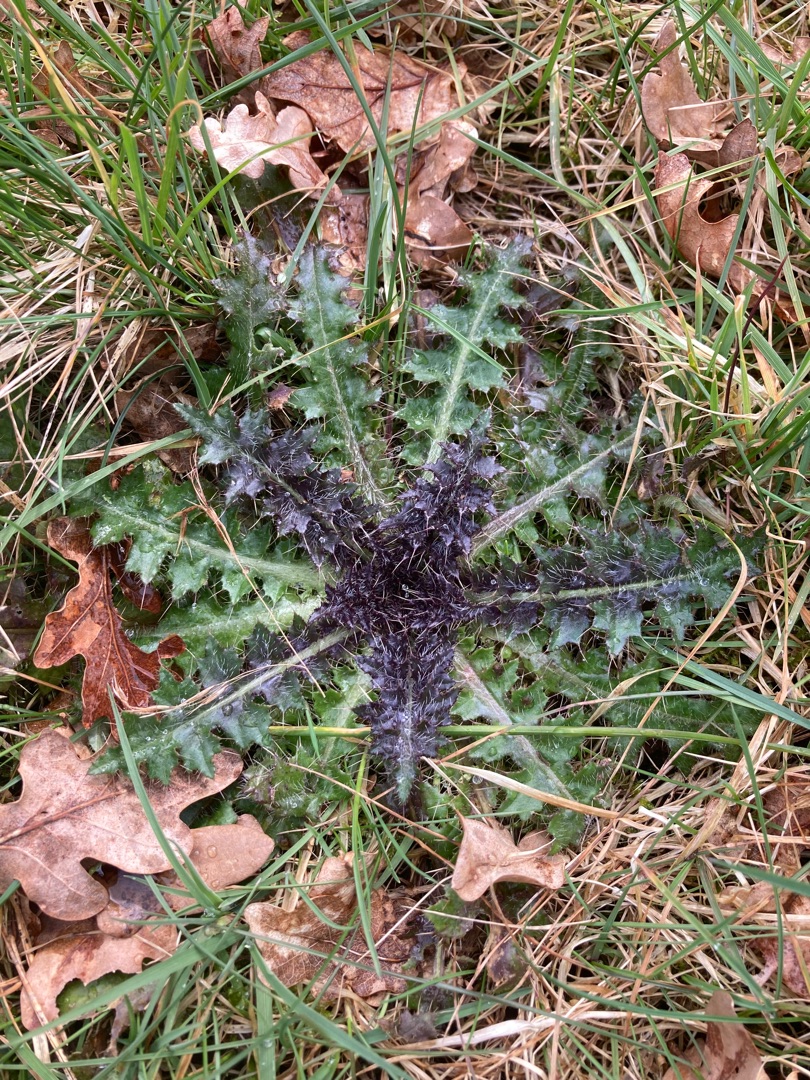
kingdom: Plantae
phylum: Tracheophyta
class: Magnoliopsida
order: Asterales
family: Asteraceae
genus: Cirsium
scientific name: Cirsium palustre
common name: Kær-tidsel
